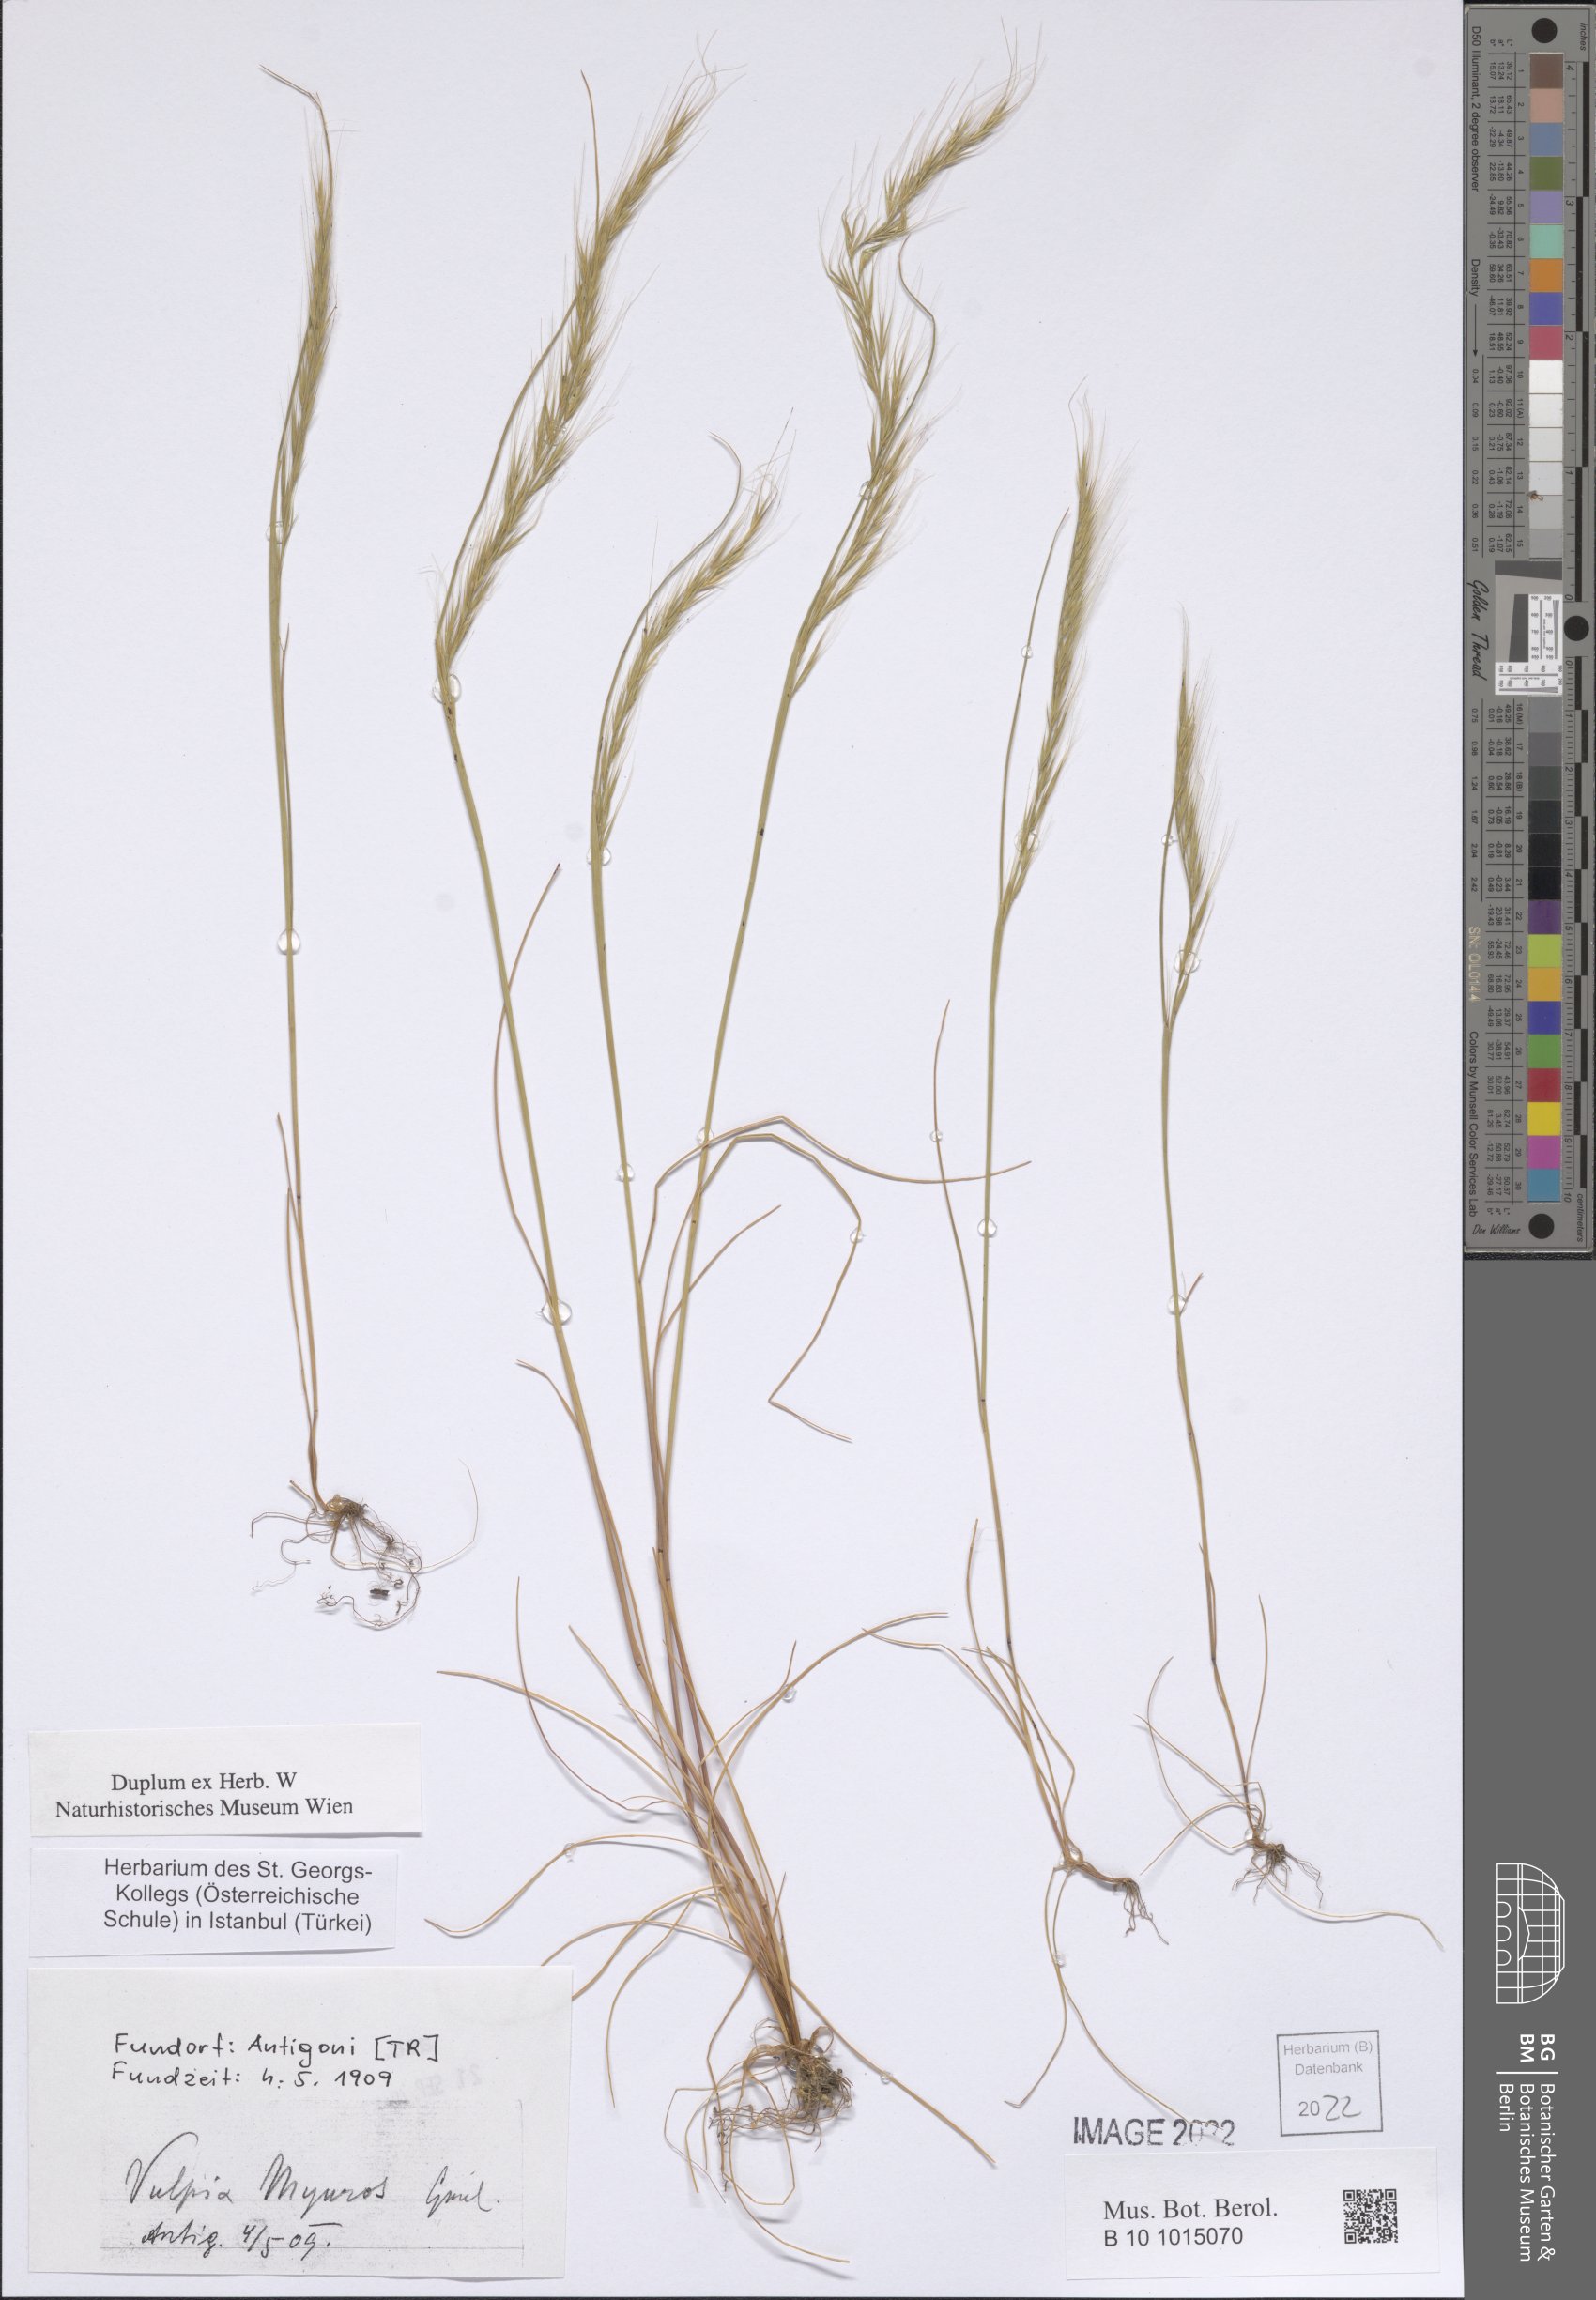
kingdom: Plantae
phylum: Tracheophyta
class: Liliopsida
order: Poales
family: Poaceae
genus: Festuca
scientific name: Festuca myuros
